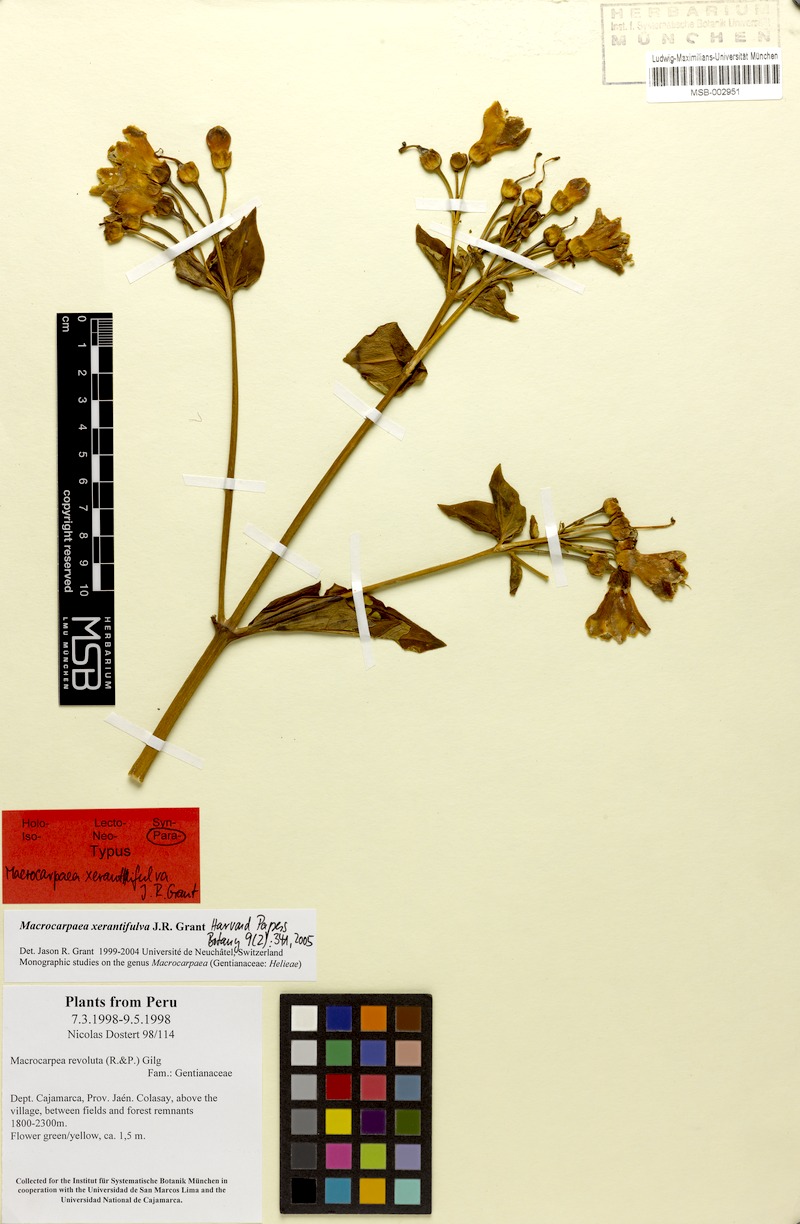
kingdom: Plantae
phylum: Tracheophyta
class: Magnoliopsida
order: Gentianales
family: Gentianaceae
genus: Macrocarpaea
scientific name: Macrocarpaea xerantifulva
